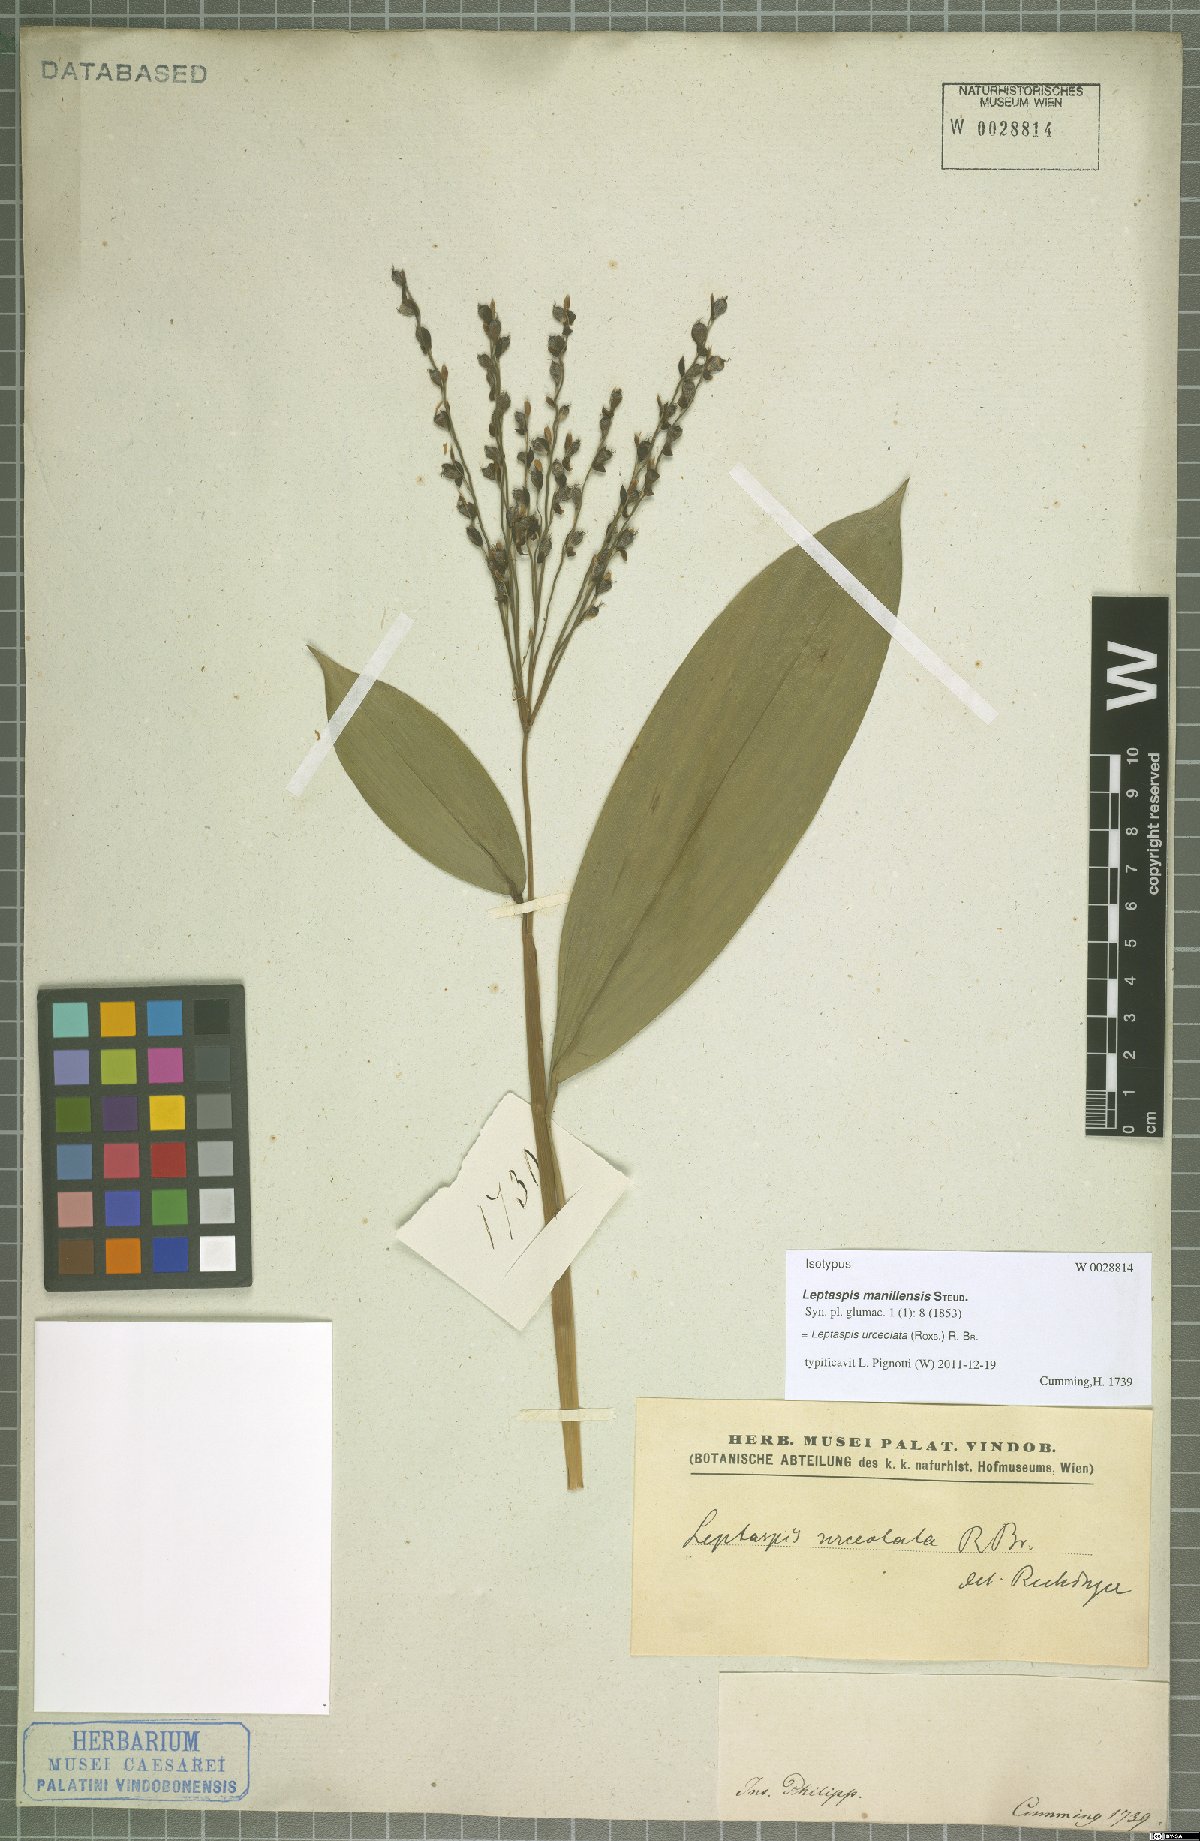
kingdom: Plantae
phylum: Tracheophyta
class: Liliopsida
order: Poales
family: Poaceae
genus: Scrotochloa
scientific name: Scrotochloa urceolata
